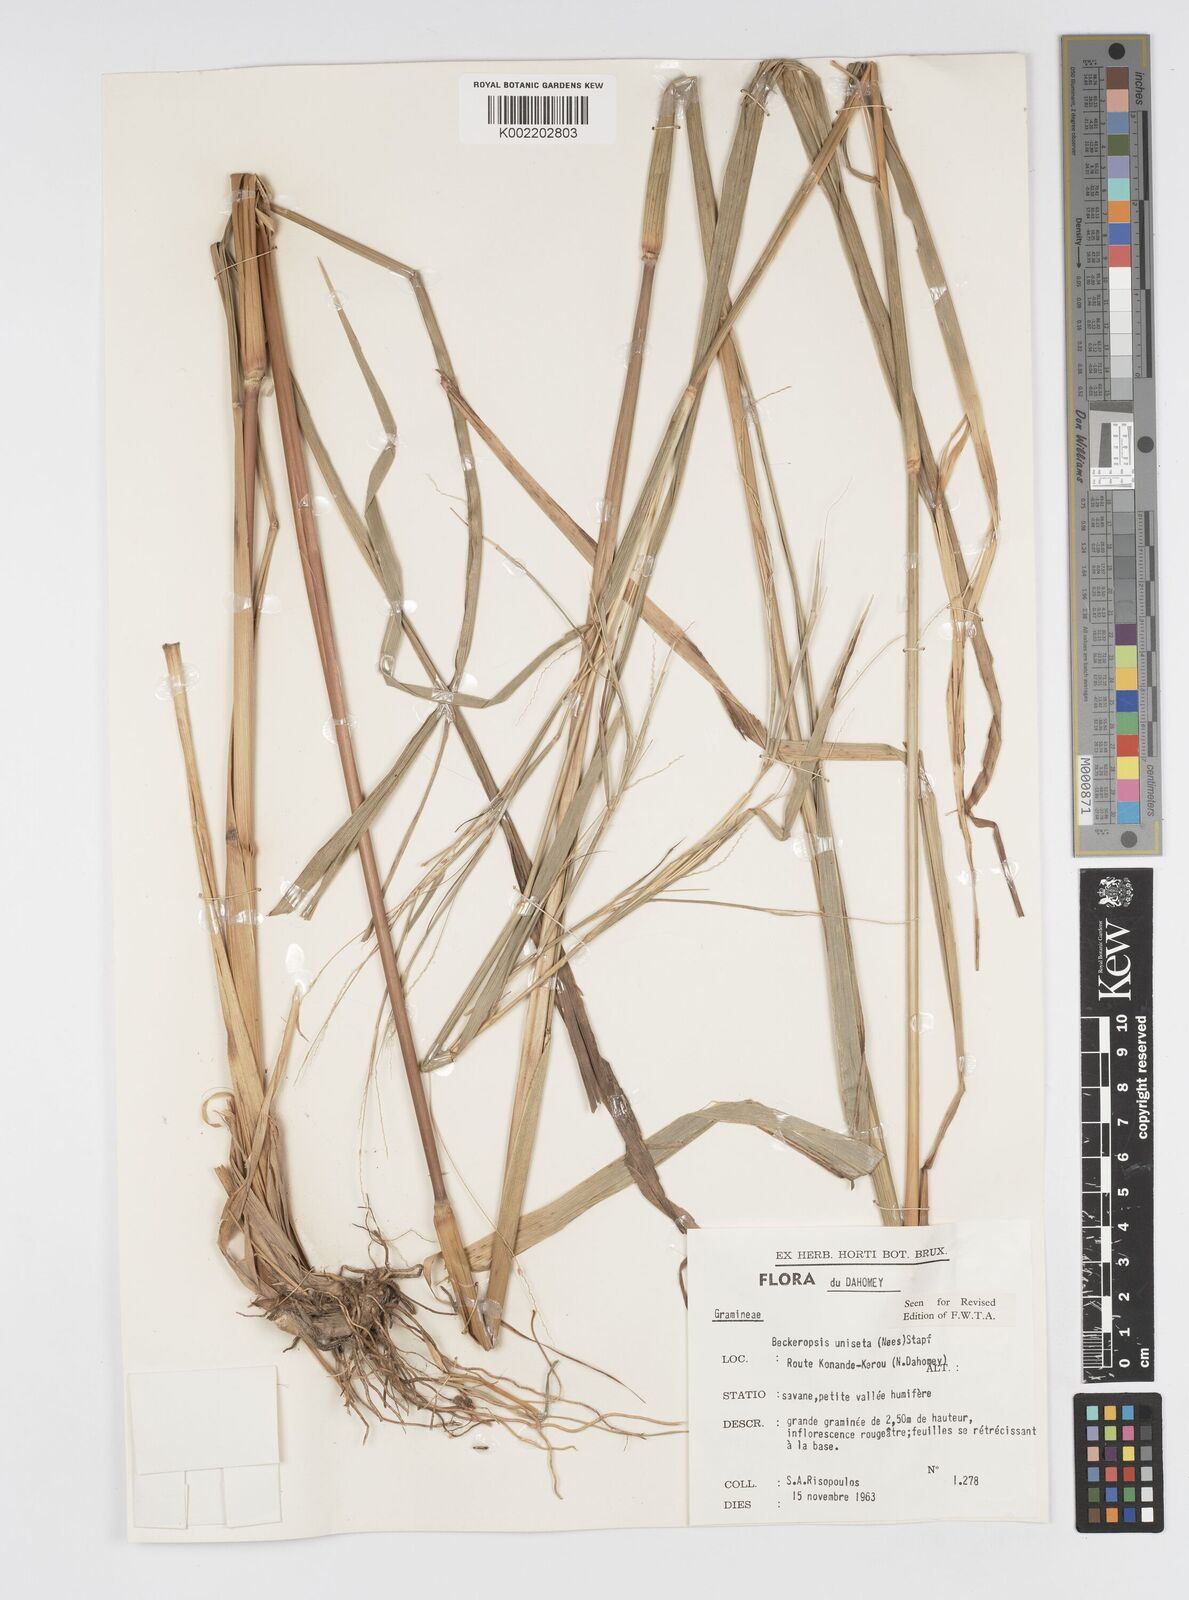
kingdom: Plantae
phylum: Tracheophyta
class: Liliopsida
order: Poales
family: Poaceae
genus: Cenchrus
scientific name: Cenchrus unisetus
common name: Natal grass
